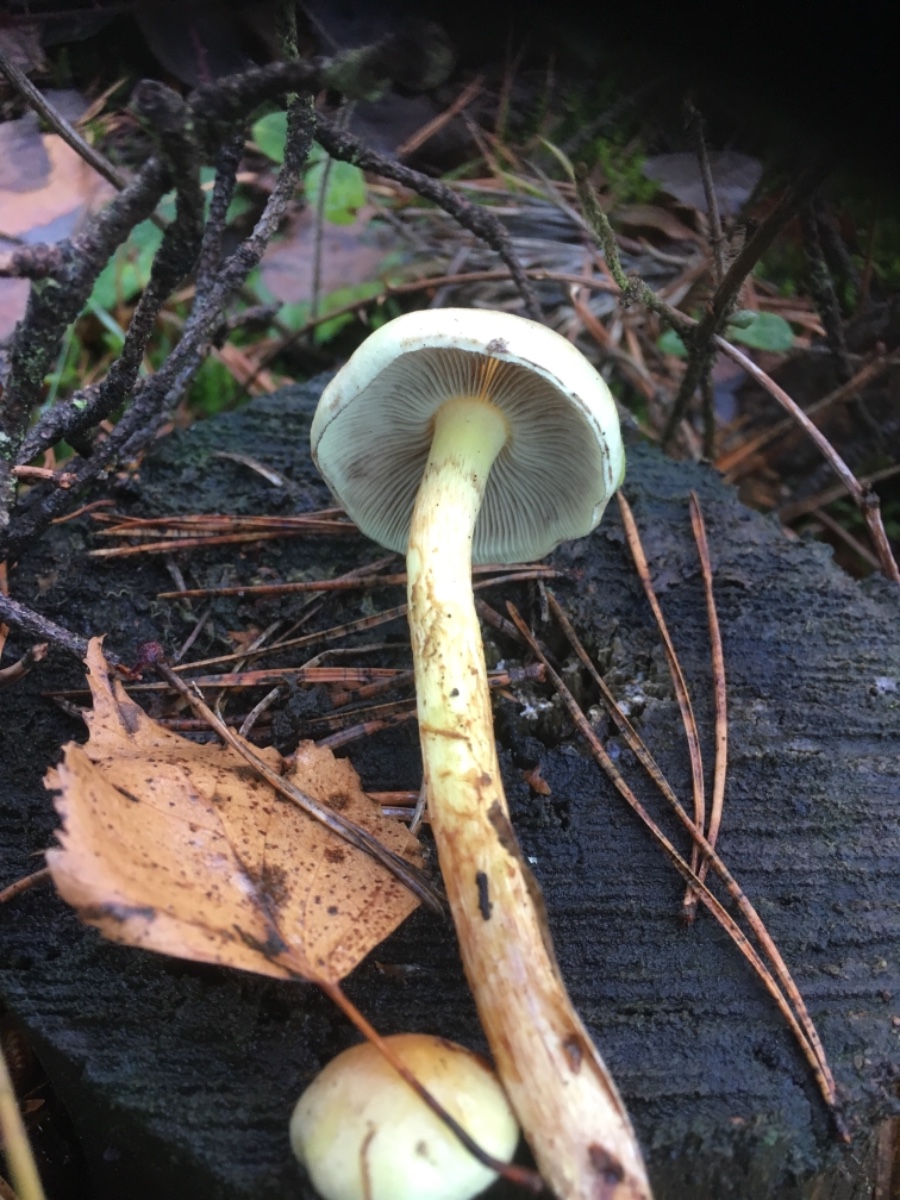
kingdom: Fungi
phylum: Basidiomycota
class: Agaricomycetes
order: Agaricales
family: Strophariaceae
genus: Hypholoma
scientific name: Hypholoma fasciculare
